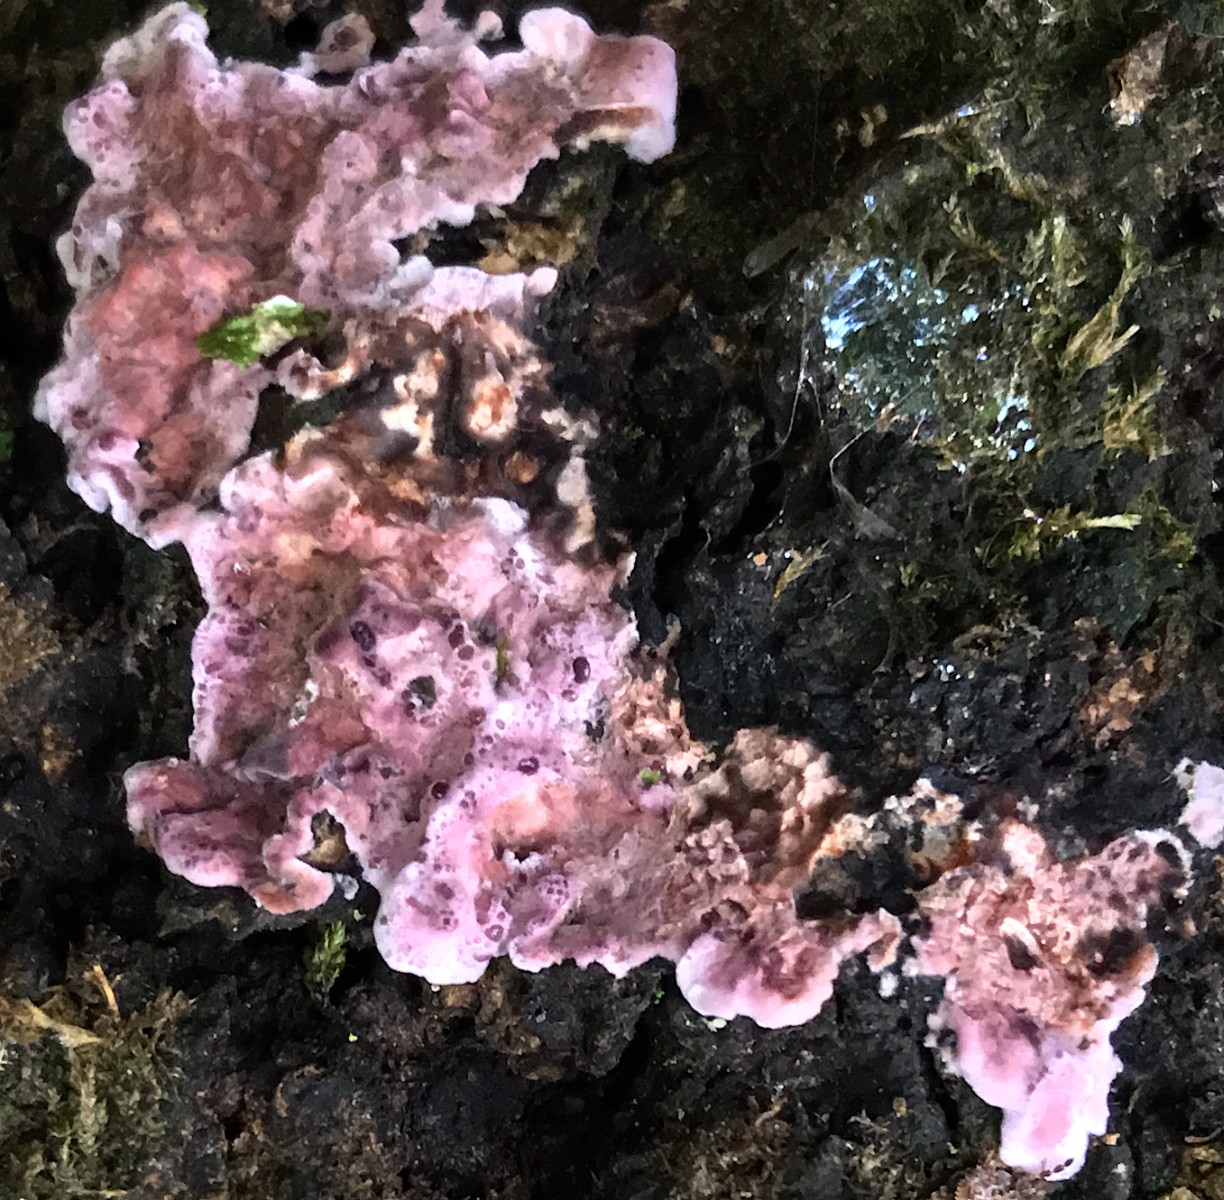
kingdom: Fungi
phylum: Basidiomycota
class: Agaricomycetes
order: Agaricales
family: Cyphellaceae
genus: Chondrostereum
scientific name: Chondrostereum purpureum
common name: purpurlædersvamp
